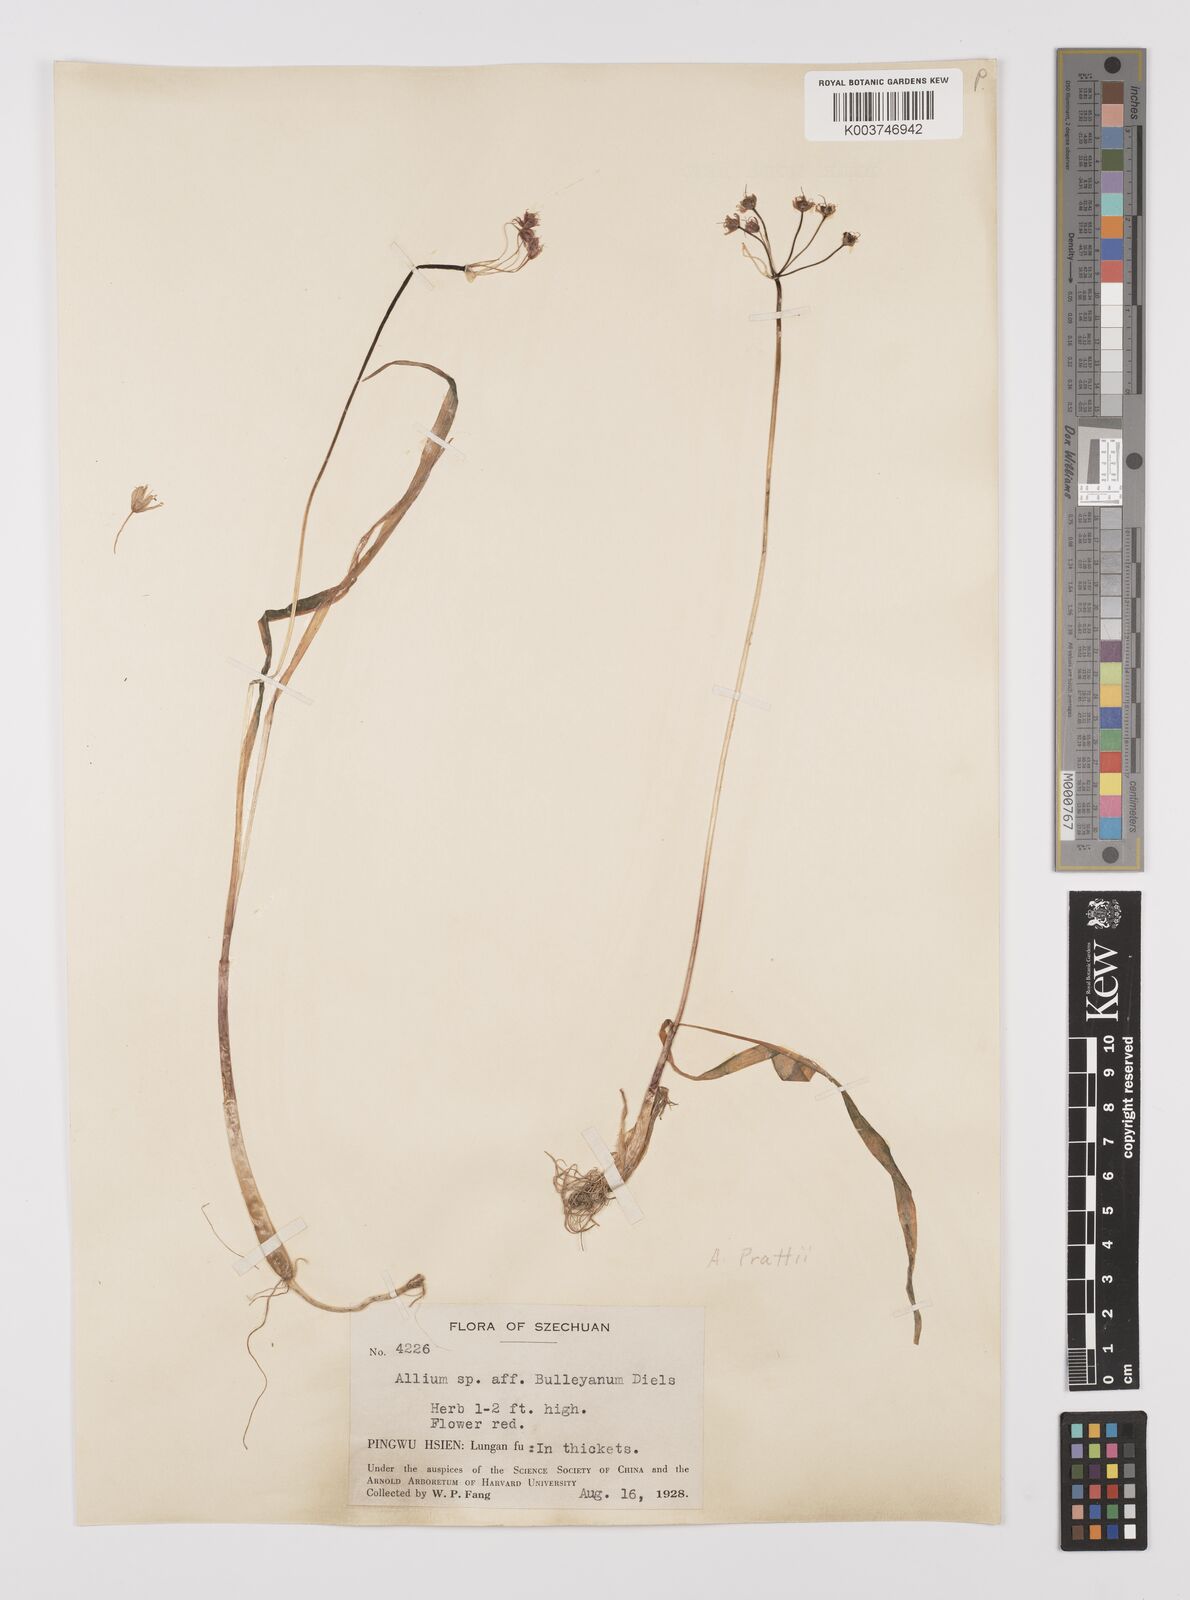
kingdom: Plantae
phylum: Tracheophyta
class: Liliopsida
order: Asparagales
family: Amaryllidaceae
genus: Allium
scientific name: Allium
